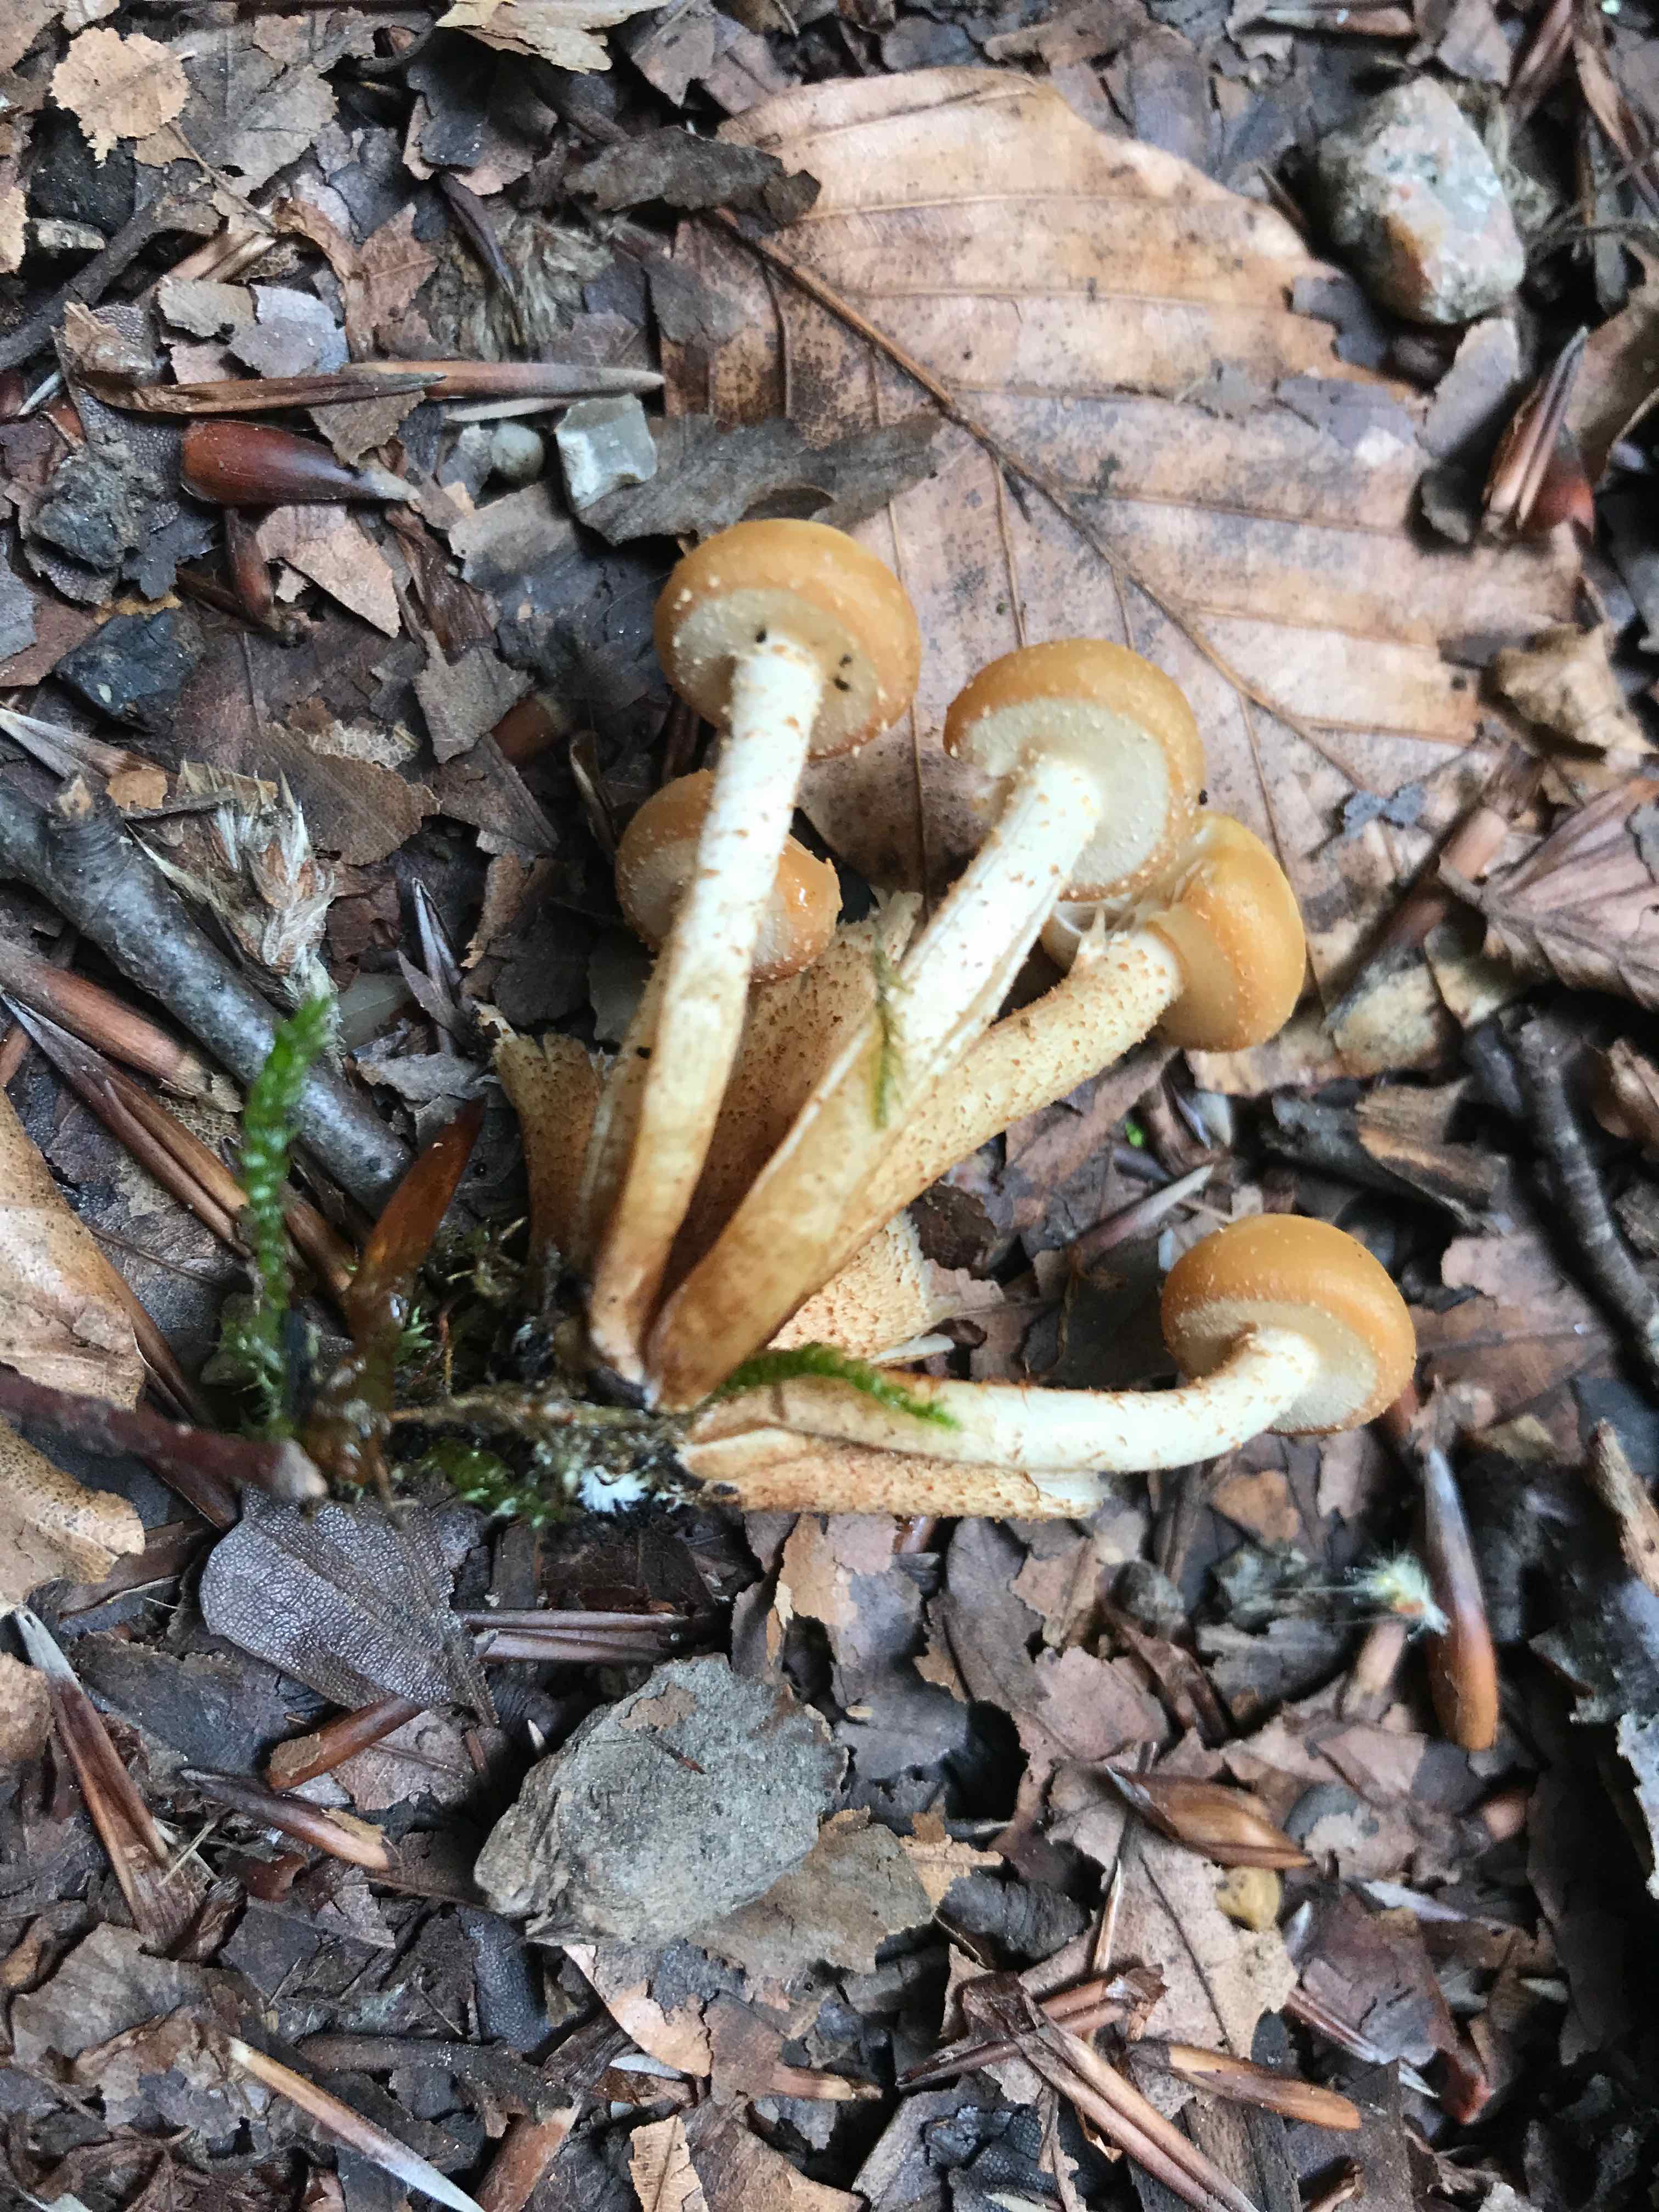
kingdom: Fungi
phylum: Basidiomycota
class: Agaricomycetes
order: Agaricales
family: Strophariaceae
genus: Kuehneromyces
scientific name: Kuehneromyces mutabilis
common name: foranderlig skælhat
